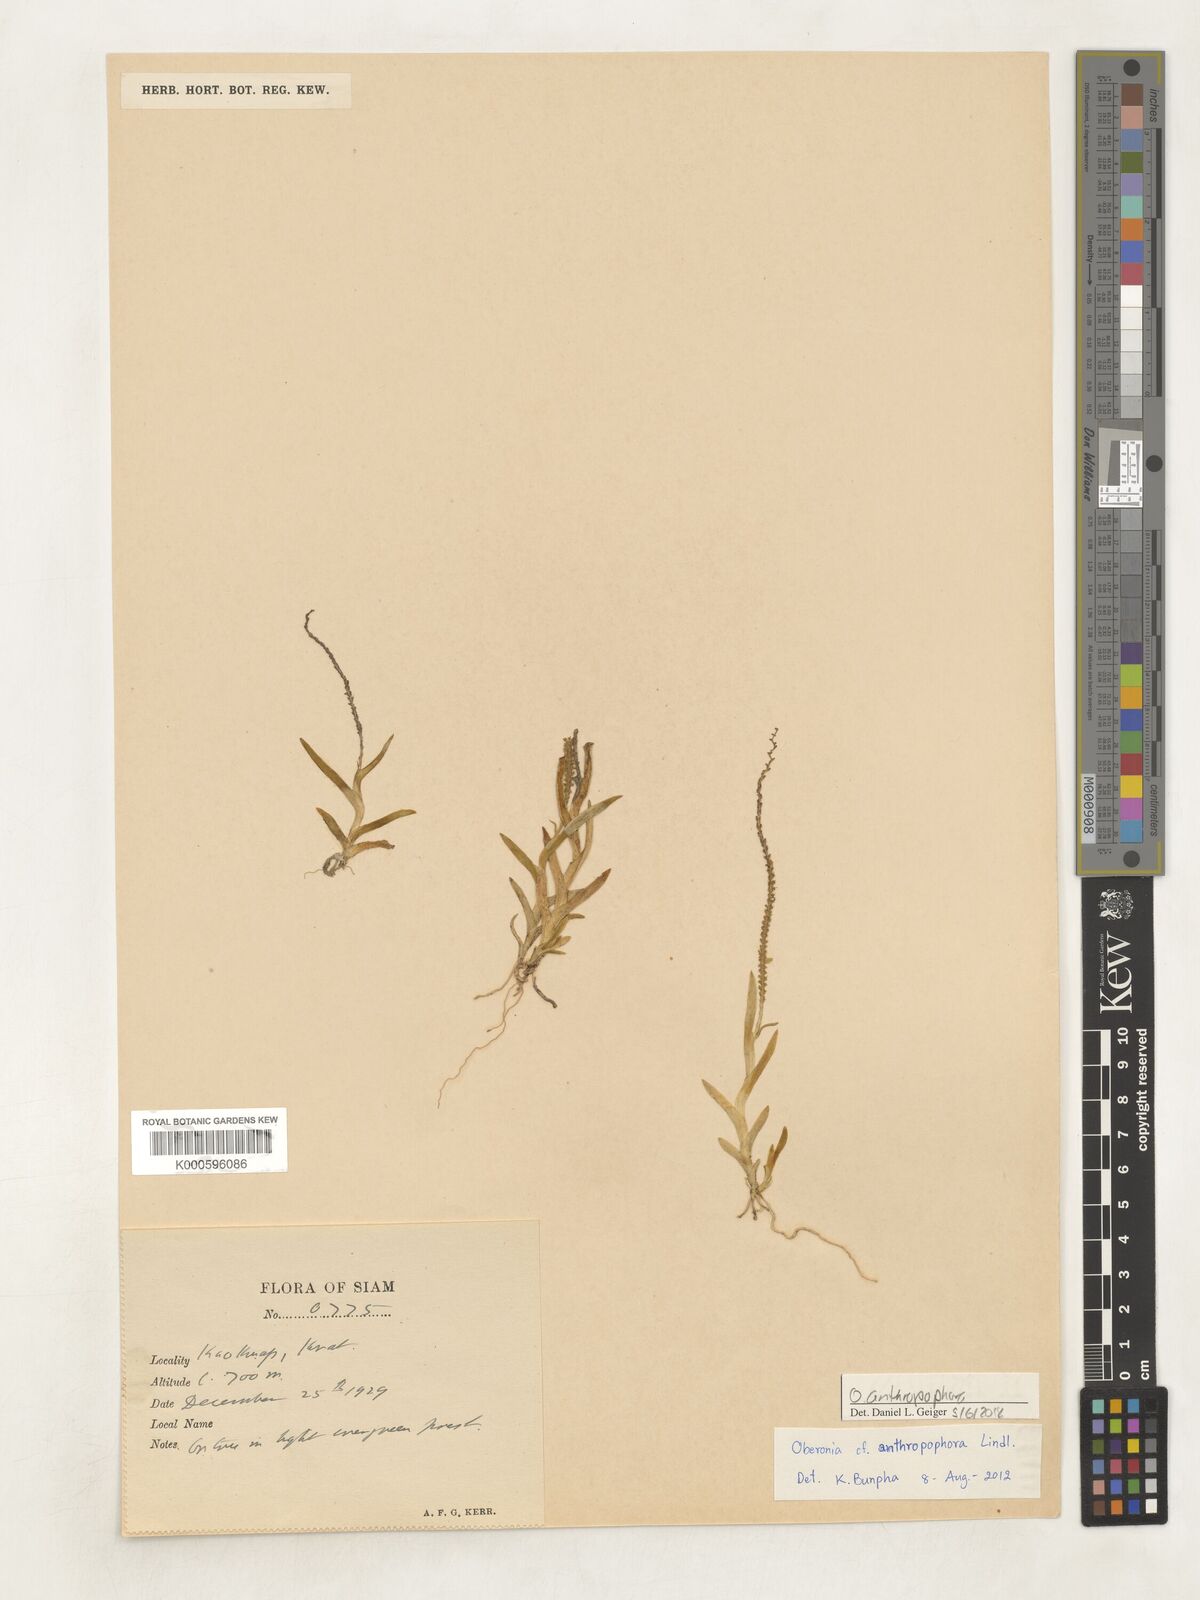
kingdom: Plantae
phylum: Tracheophyta
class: Liliopsida
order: Asparagales
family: Orchidaceae
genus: Oberonia
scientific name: Oberonia
